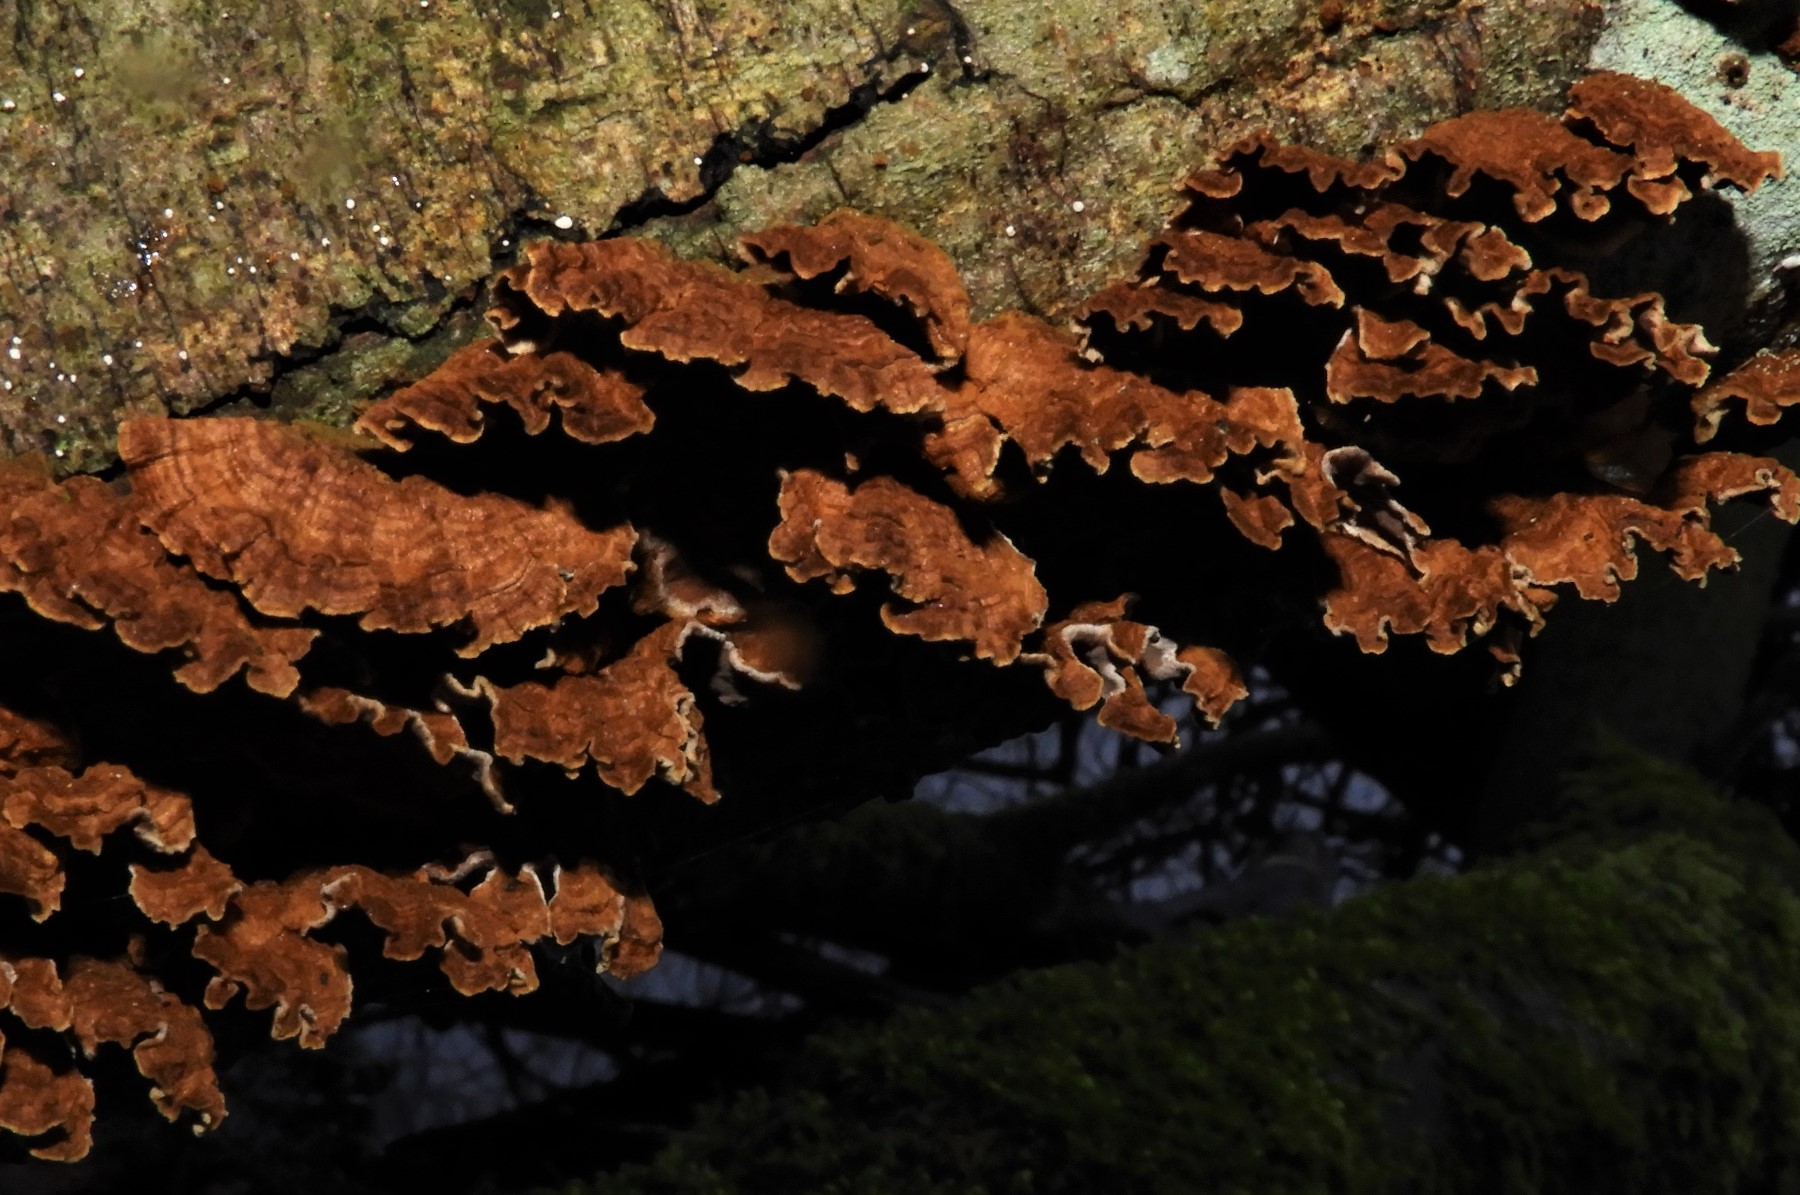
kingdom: Fungi
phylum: Basidiomycota
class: Agaricomycetes
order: Hymenochaetales
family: Hymenochaetaceae
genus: Hydnoporia
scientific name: Hydnoporia tabacina
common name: tobaksbrun ruslædersvamp
